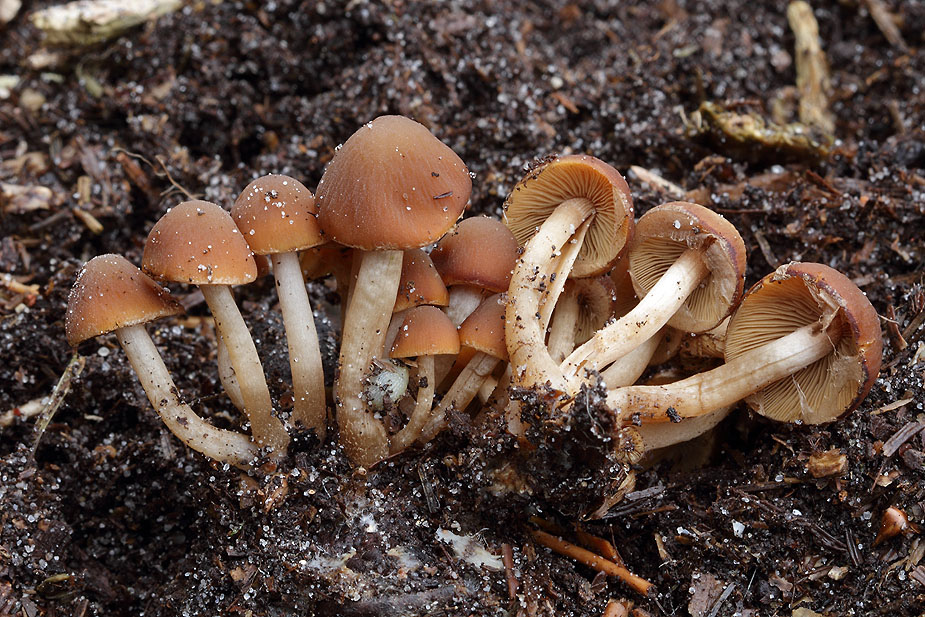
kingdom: Fungi
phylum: Basidiomycota
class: Agaricomycetes
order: Agaricales
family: Psathyrellaceae
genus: Psathyrella
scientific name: Psathyrella laevissima
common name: Slender stump brittlestem
